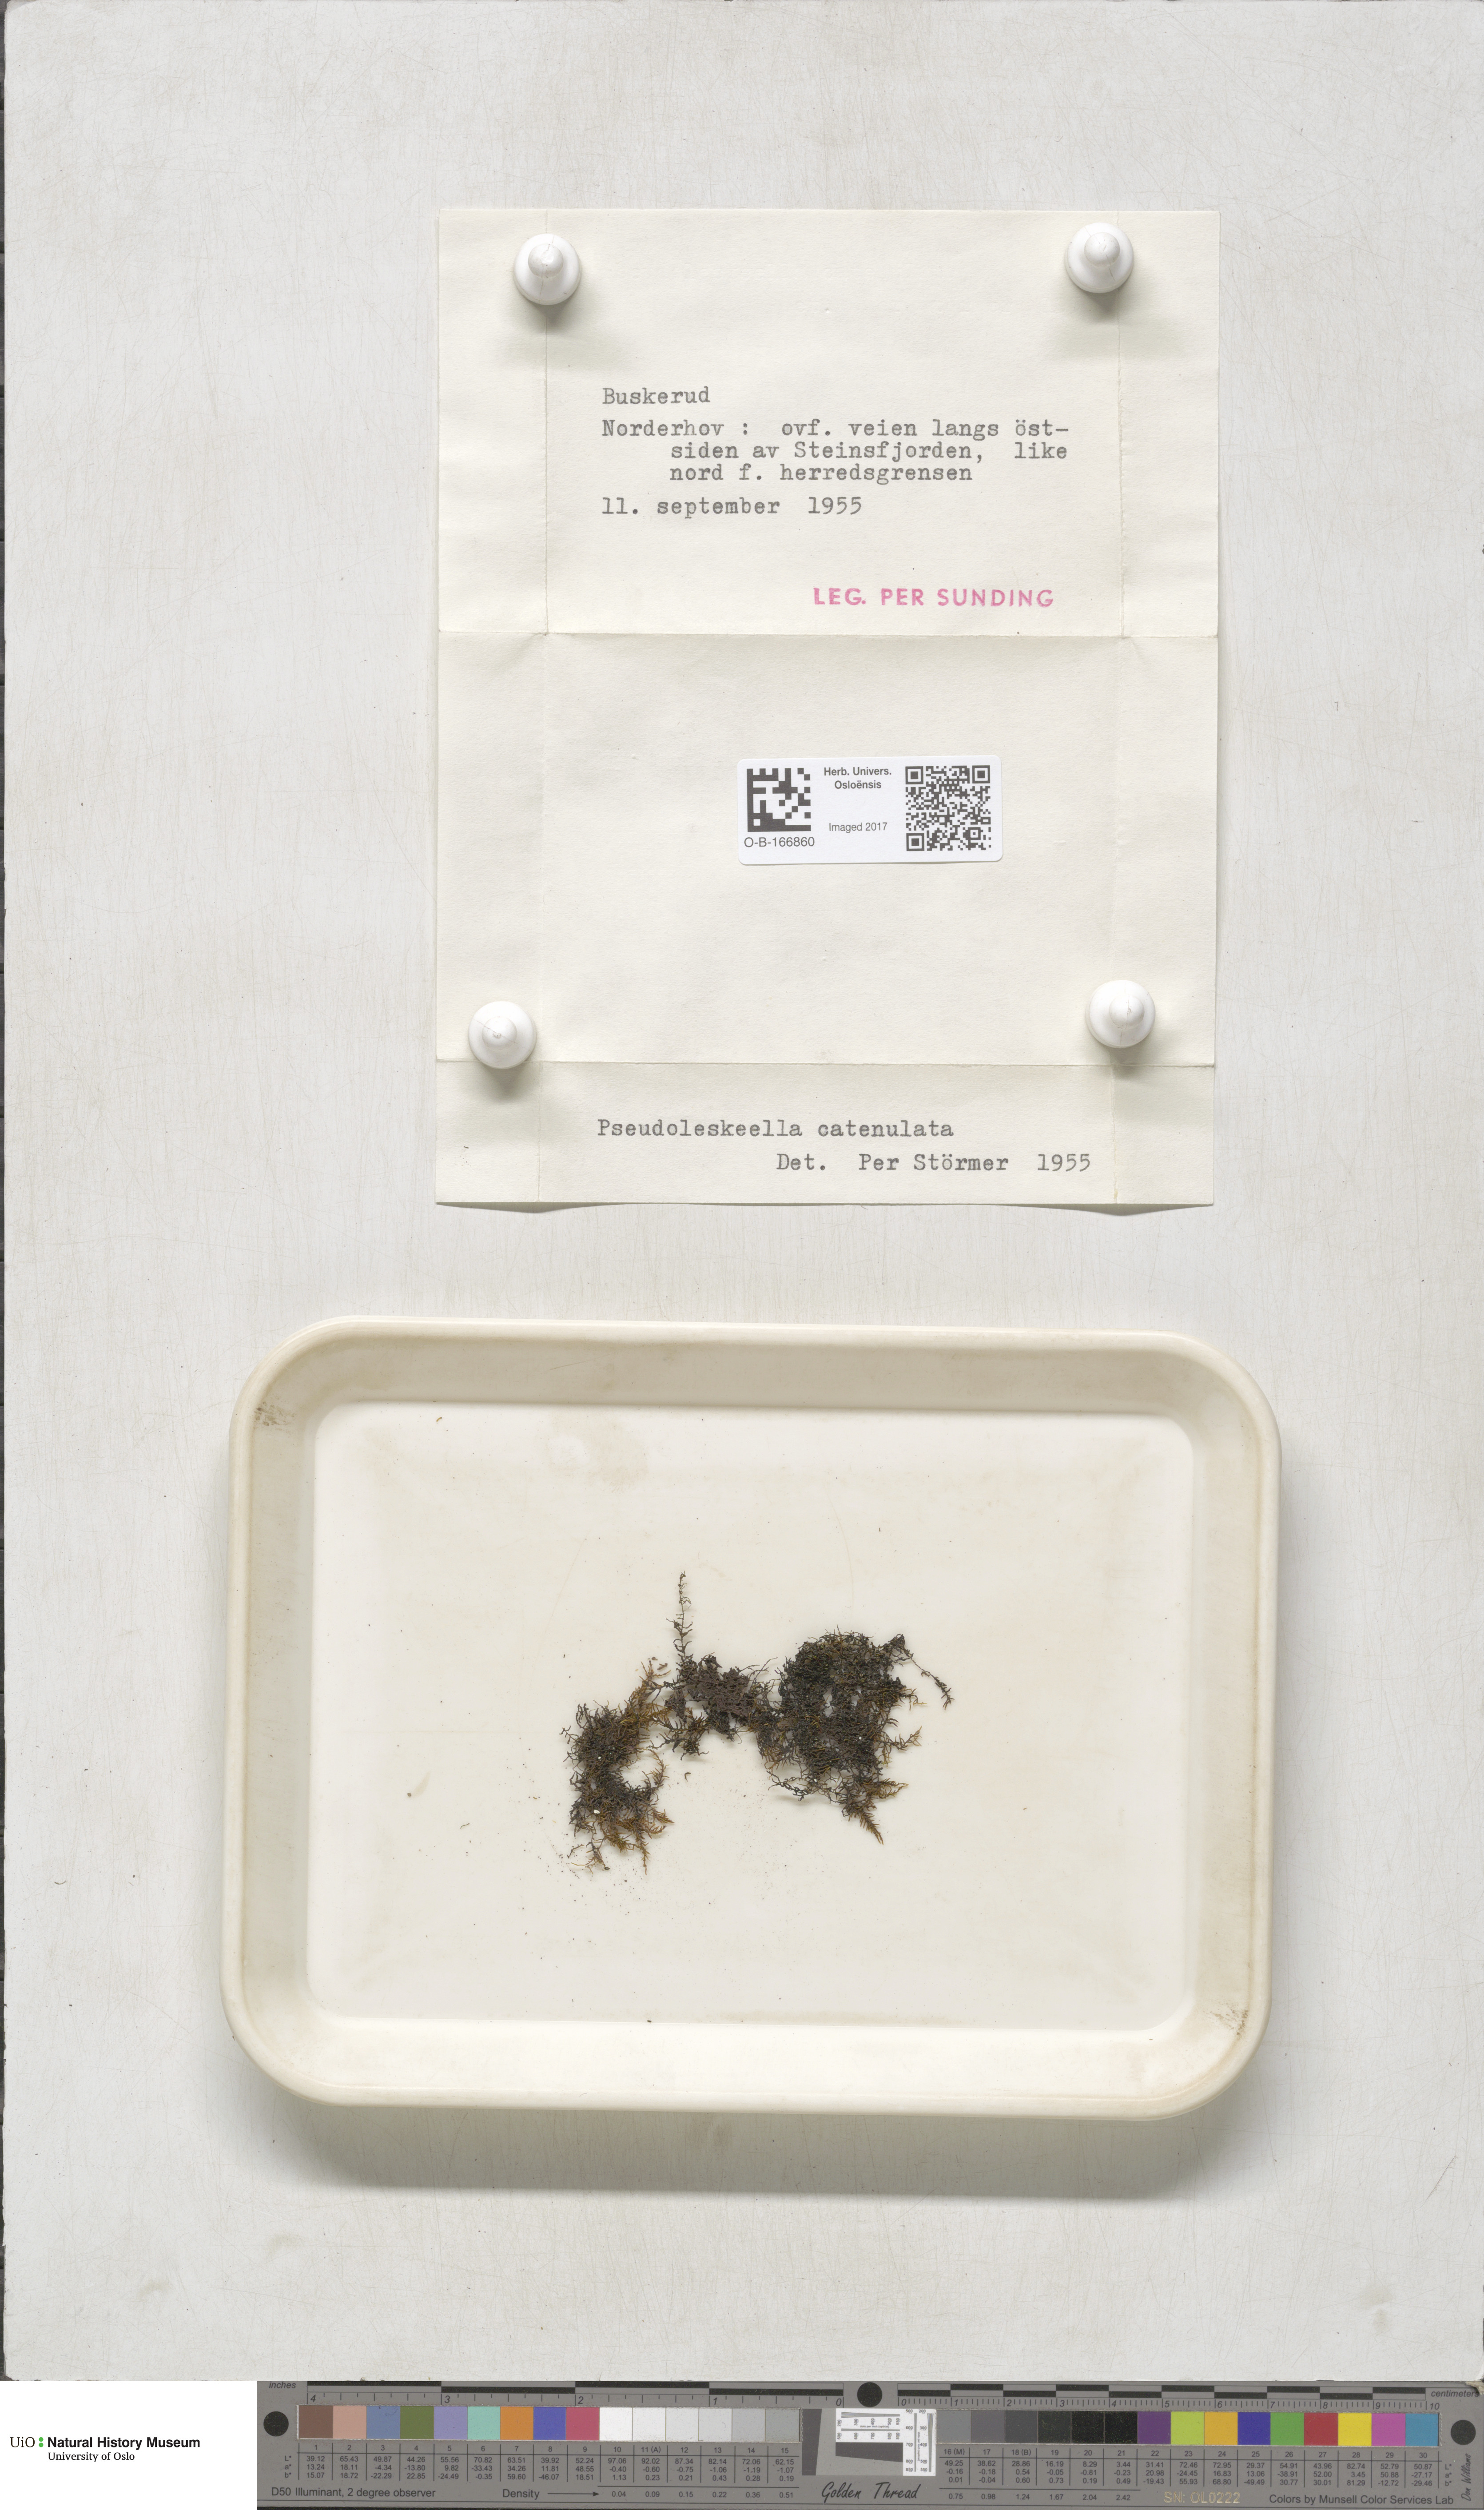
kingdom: Plantae
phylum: Bryophyta
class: Bryopsida
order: Hypnales
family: Pseudoleskeellaceae
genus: Pseudoleskeella
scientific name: Pseudoleskeella catenulata
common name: Chained leskea
